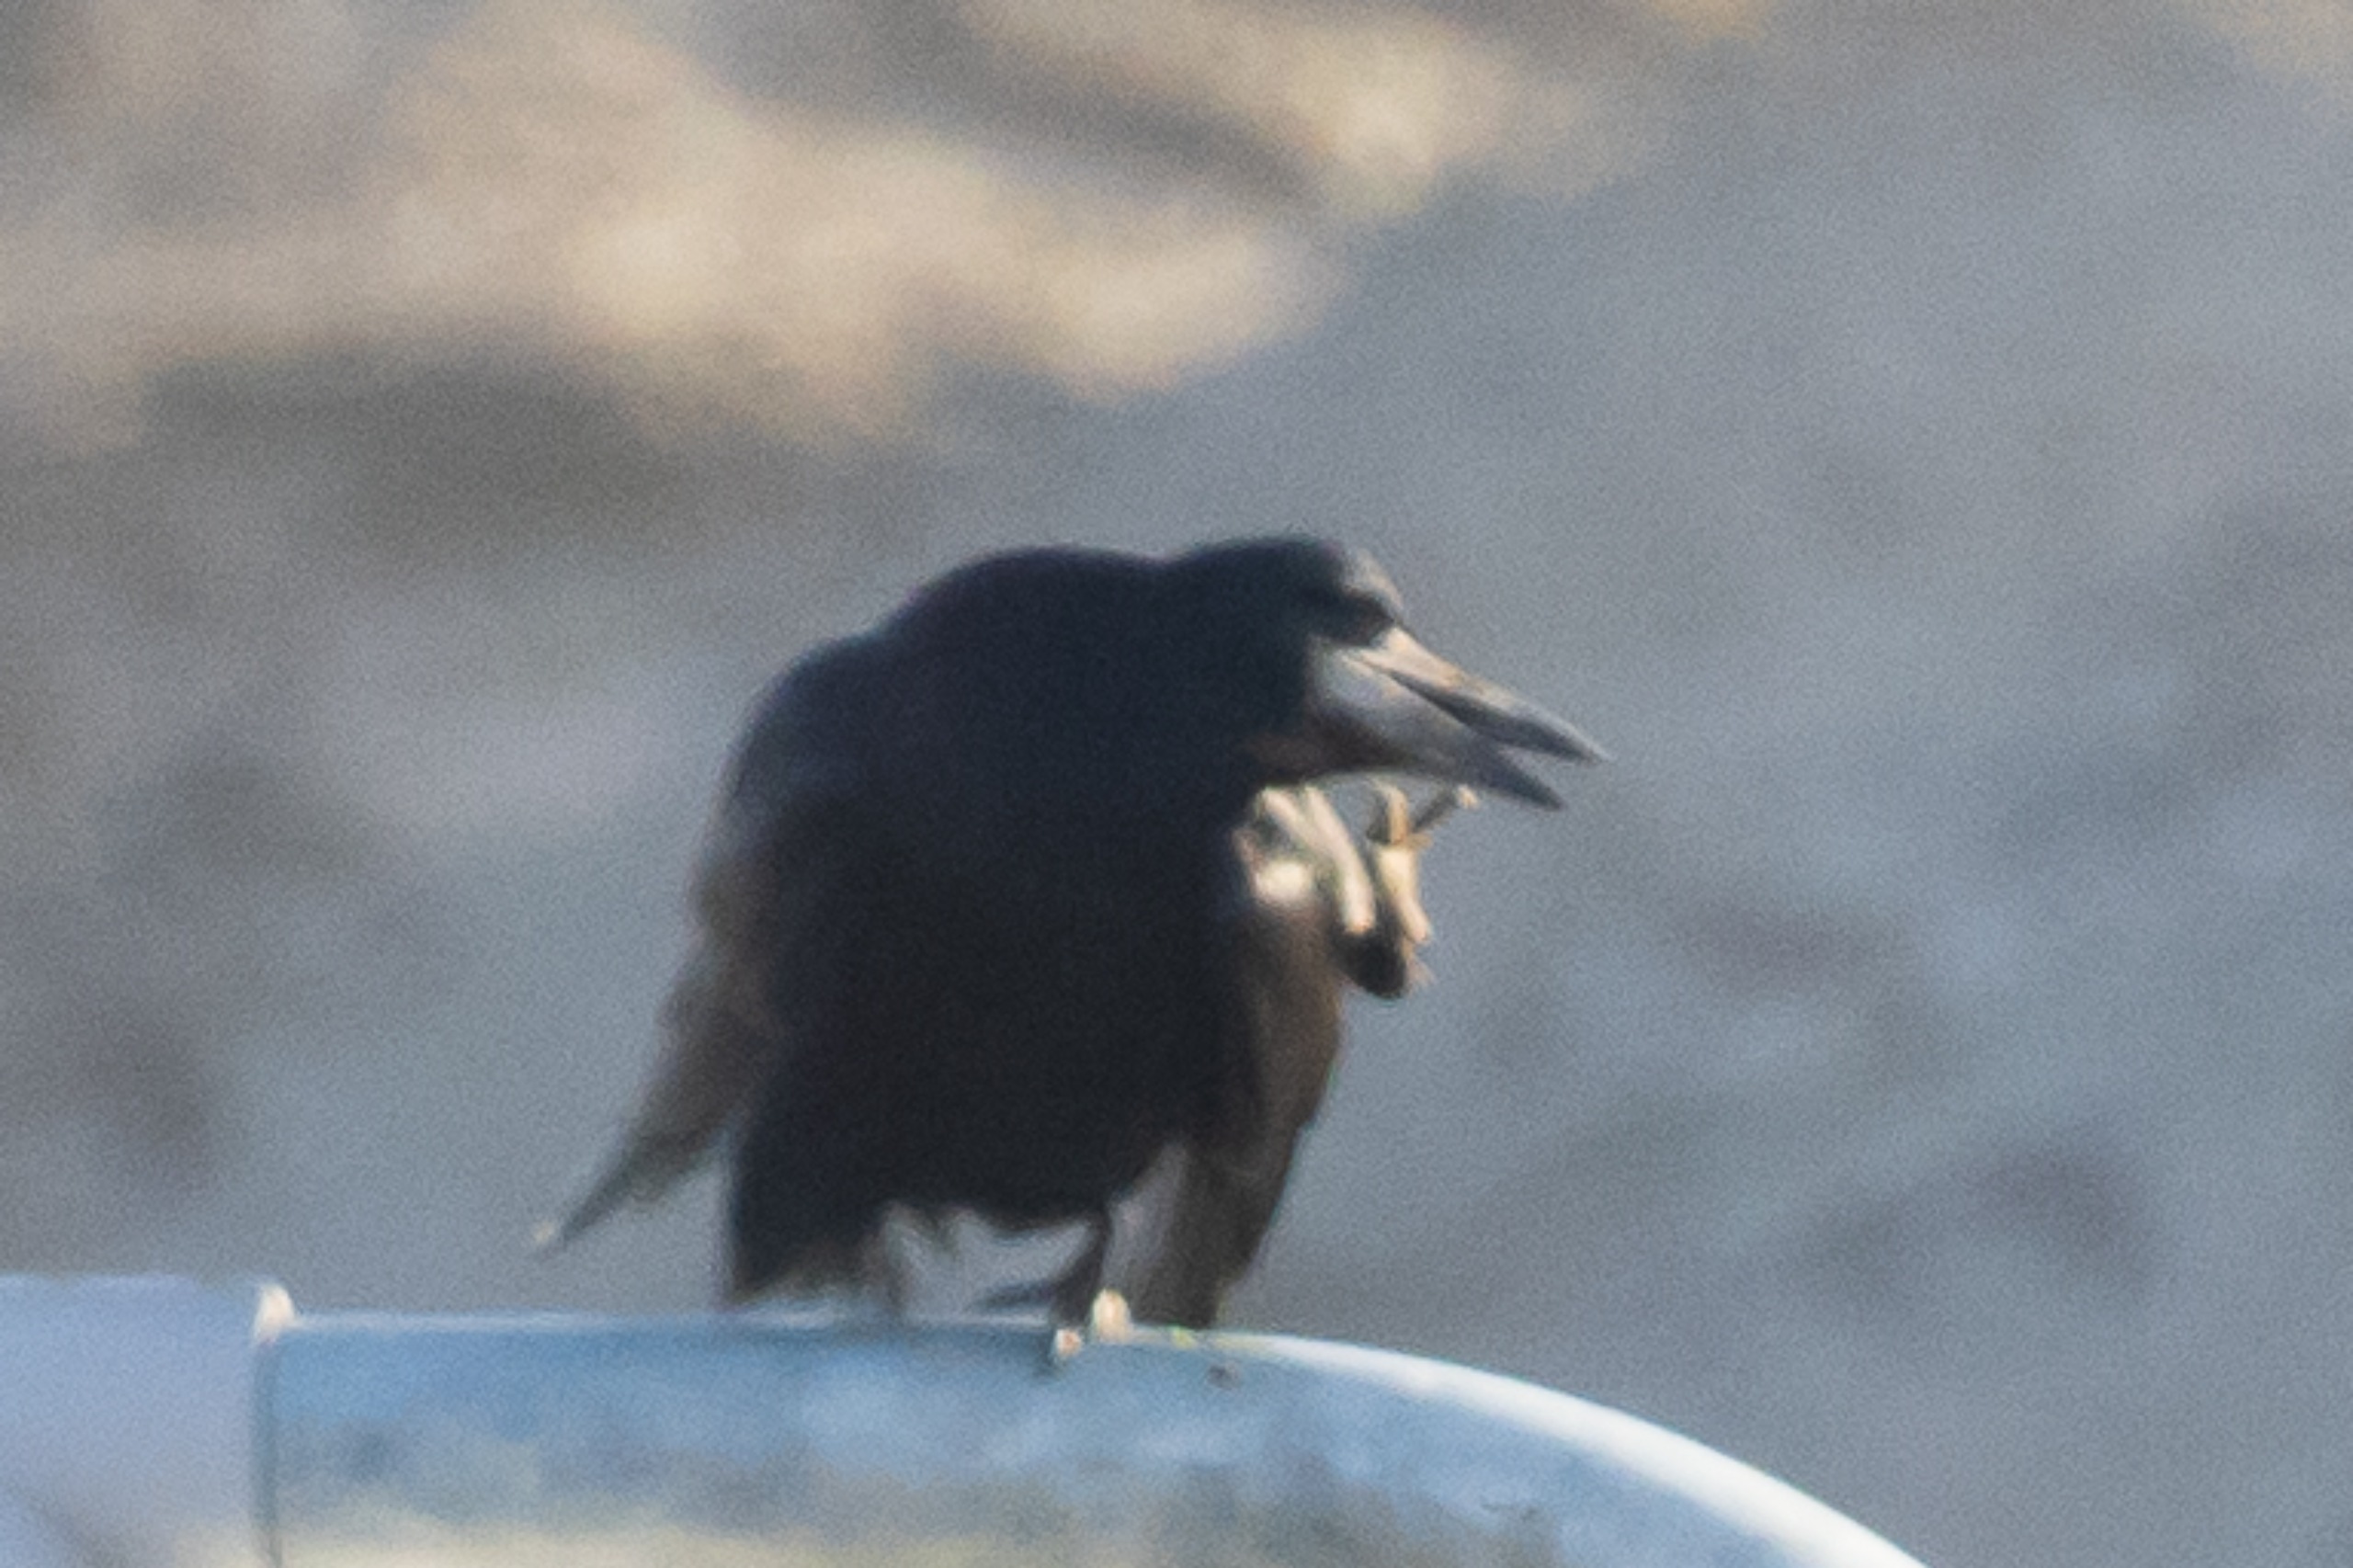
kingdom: Animalia
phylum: Chordata
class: Aves
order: Passeriformes
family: Corvidae
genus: Corvus
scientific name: Corvus frugilegus
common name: Råge
